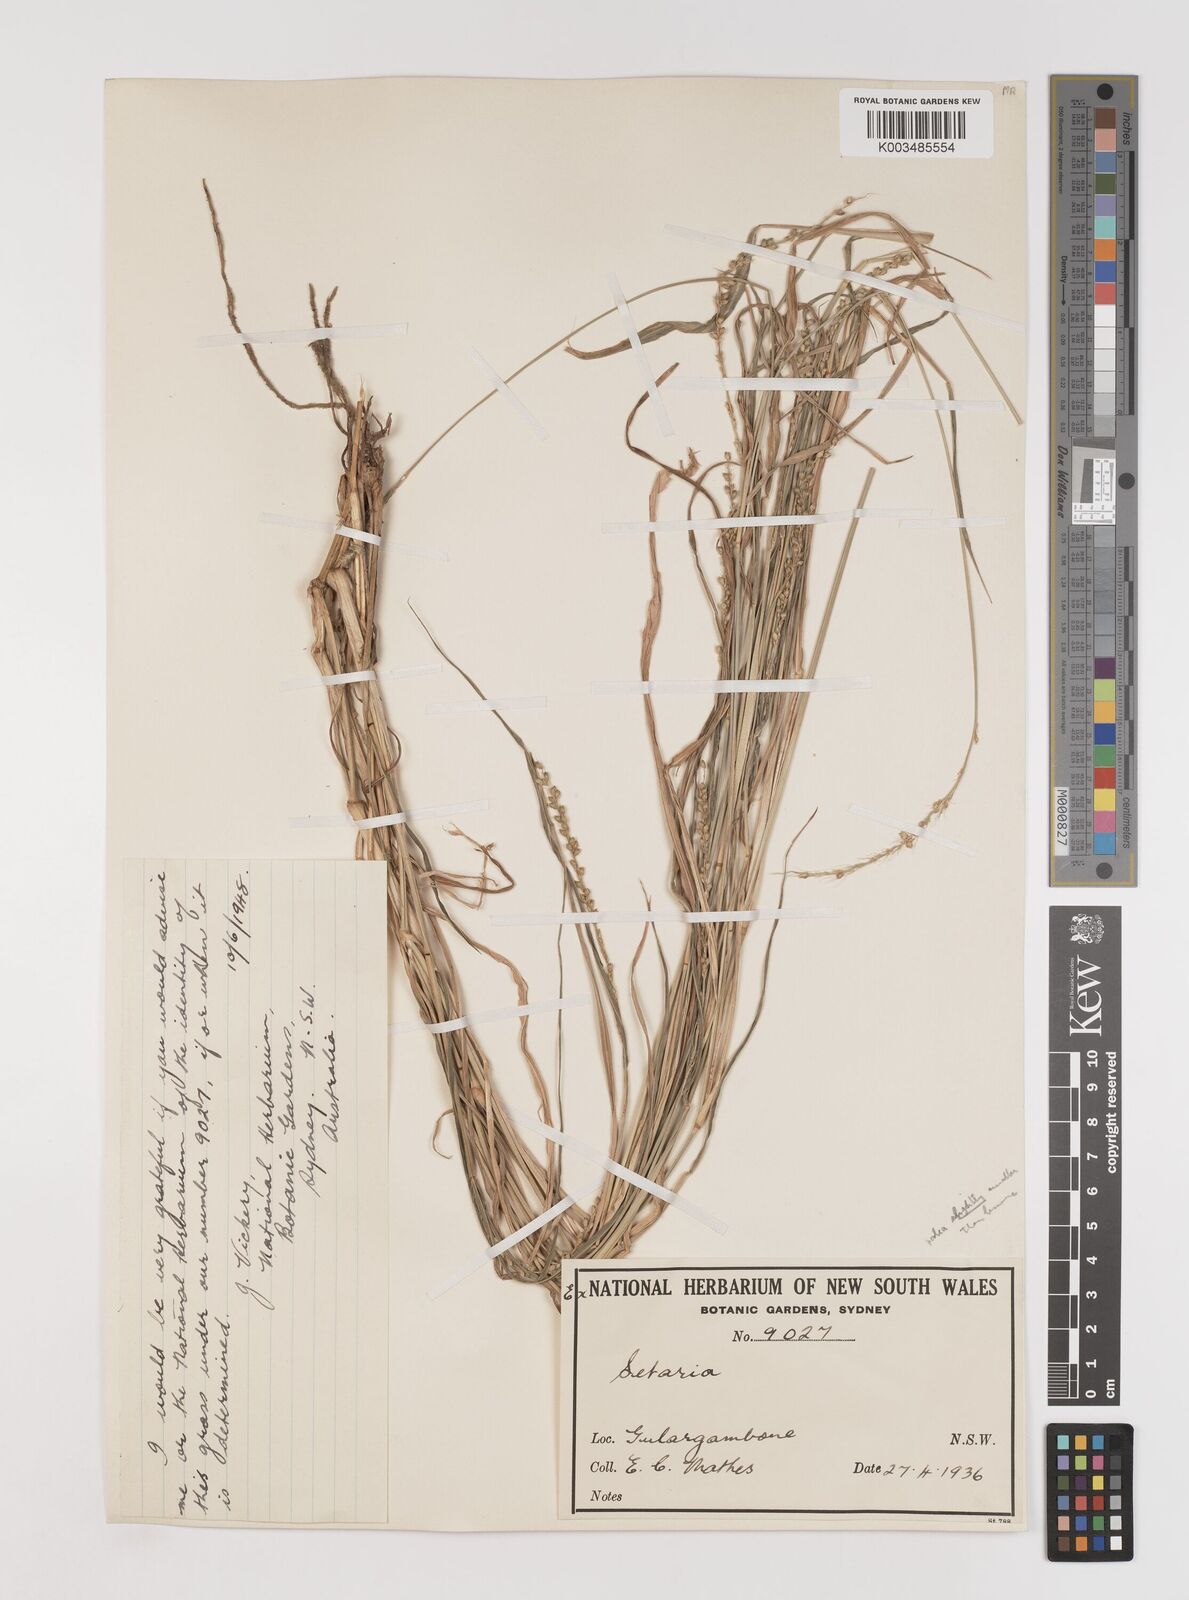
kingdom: Plantae
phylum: Tracheophyta
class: Liliopsida
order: Poales
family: Poaceae
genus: Setaria
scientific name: Setaria
